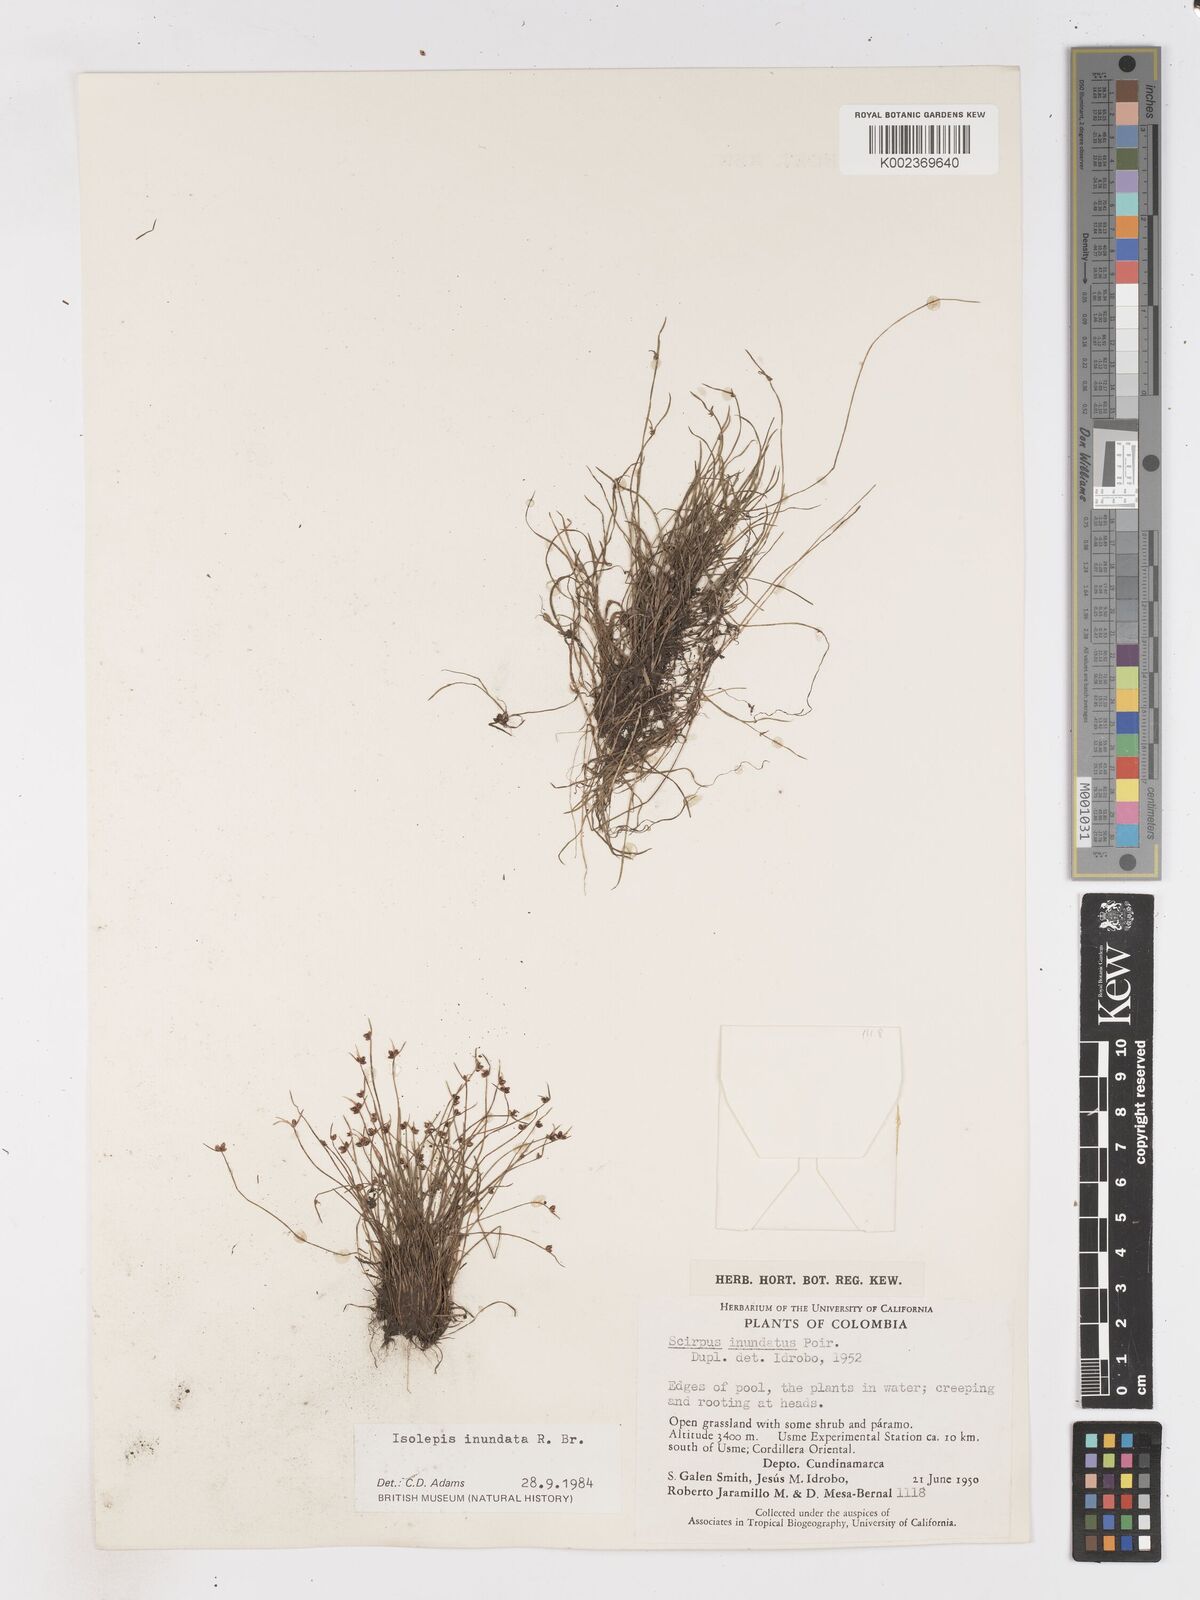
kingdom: Plantae
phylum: Tracheophyta
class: Liliopsida
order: Poales
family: Cyperaceae
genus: Isolepis
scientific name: Isolepis inundata
